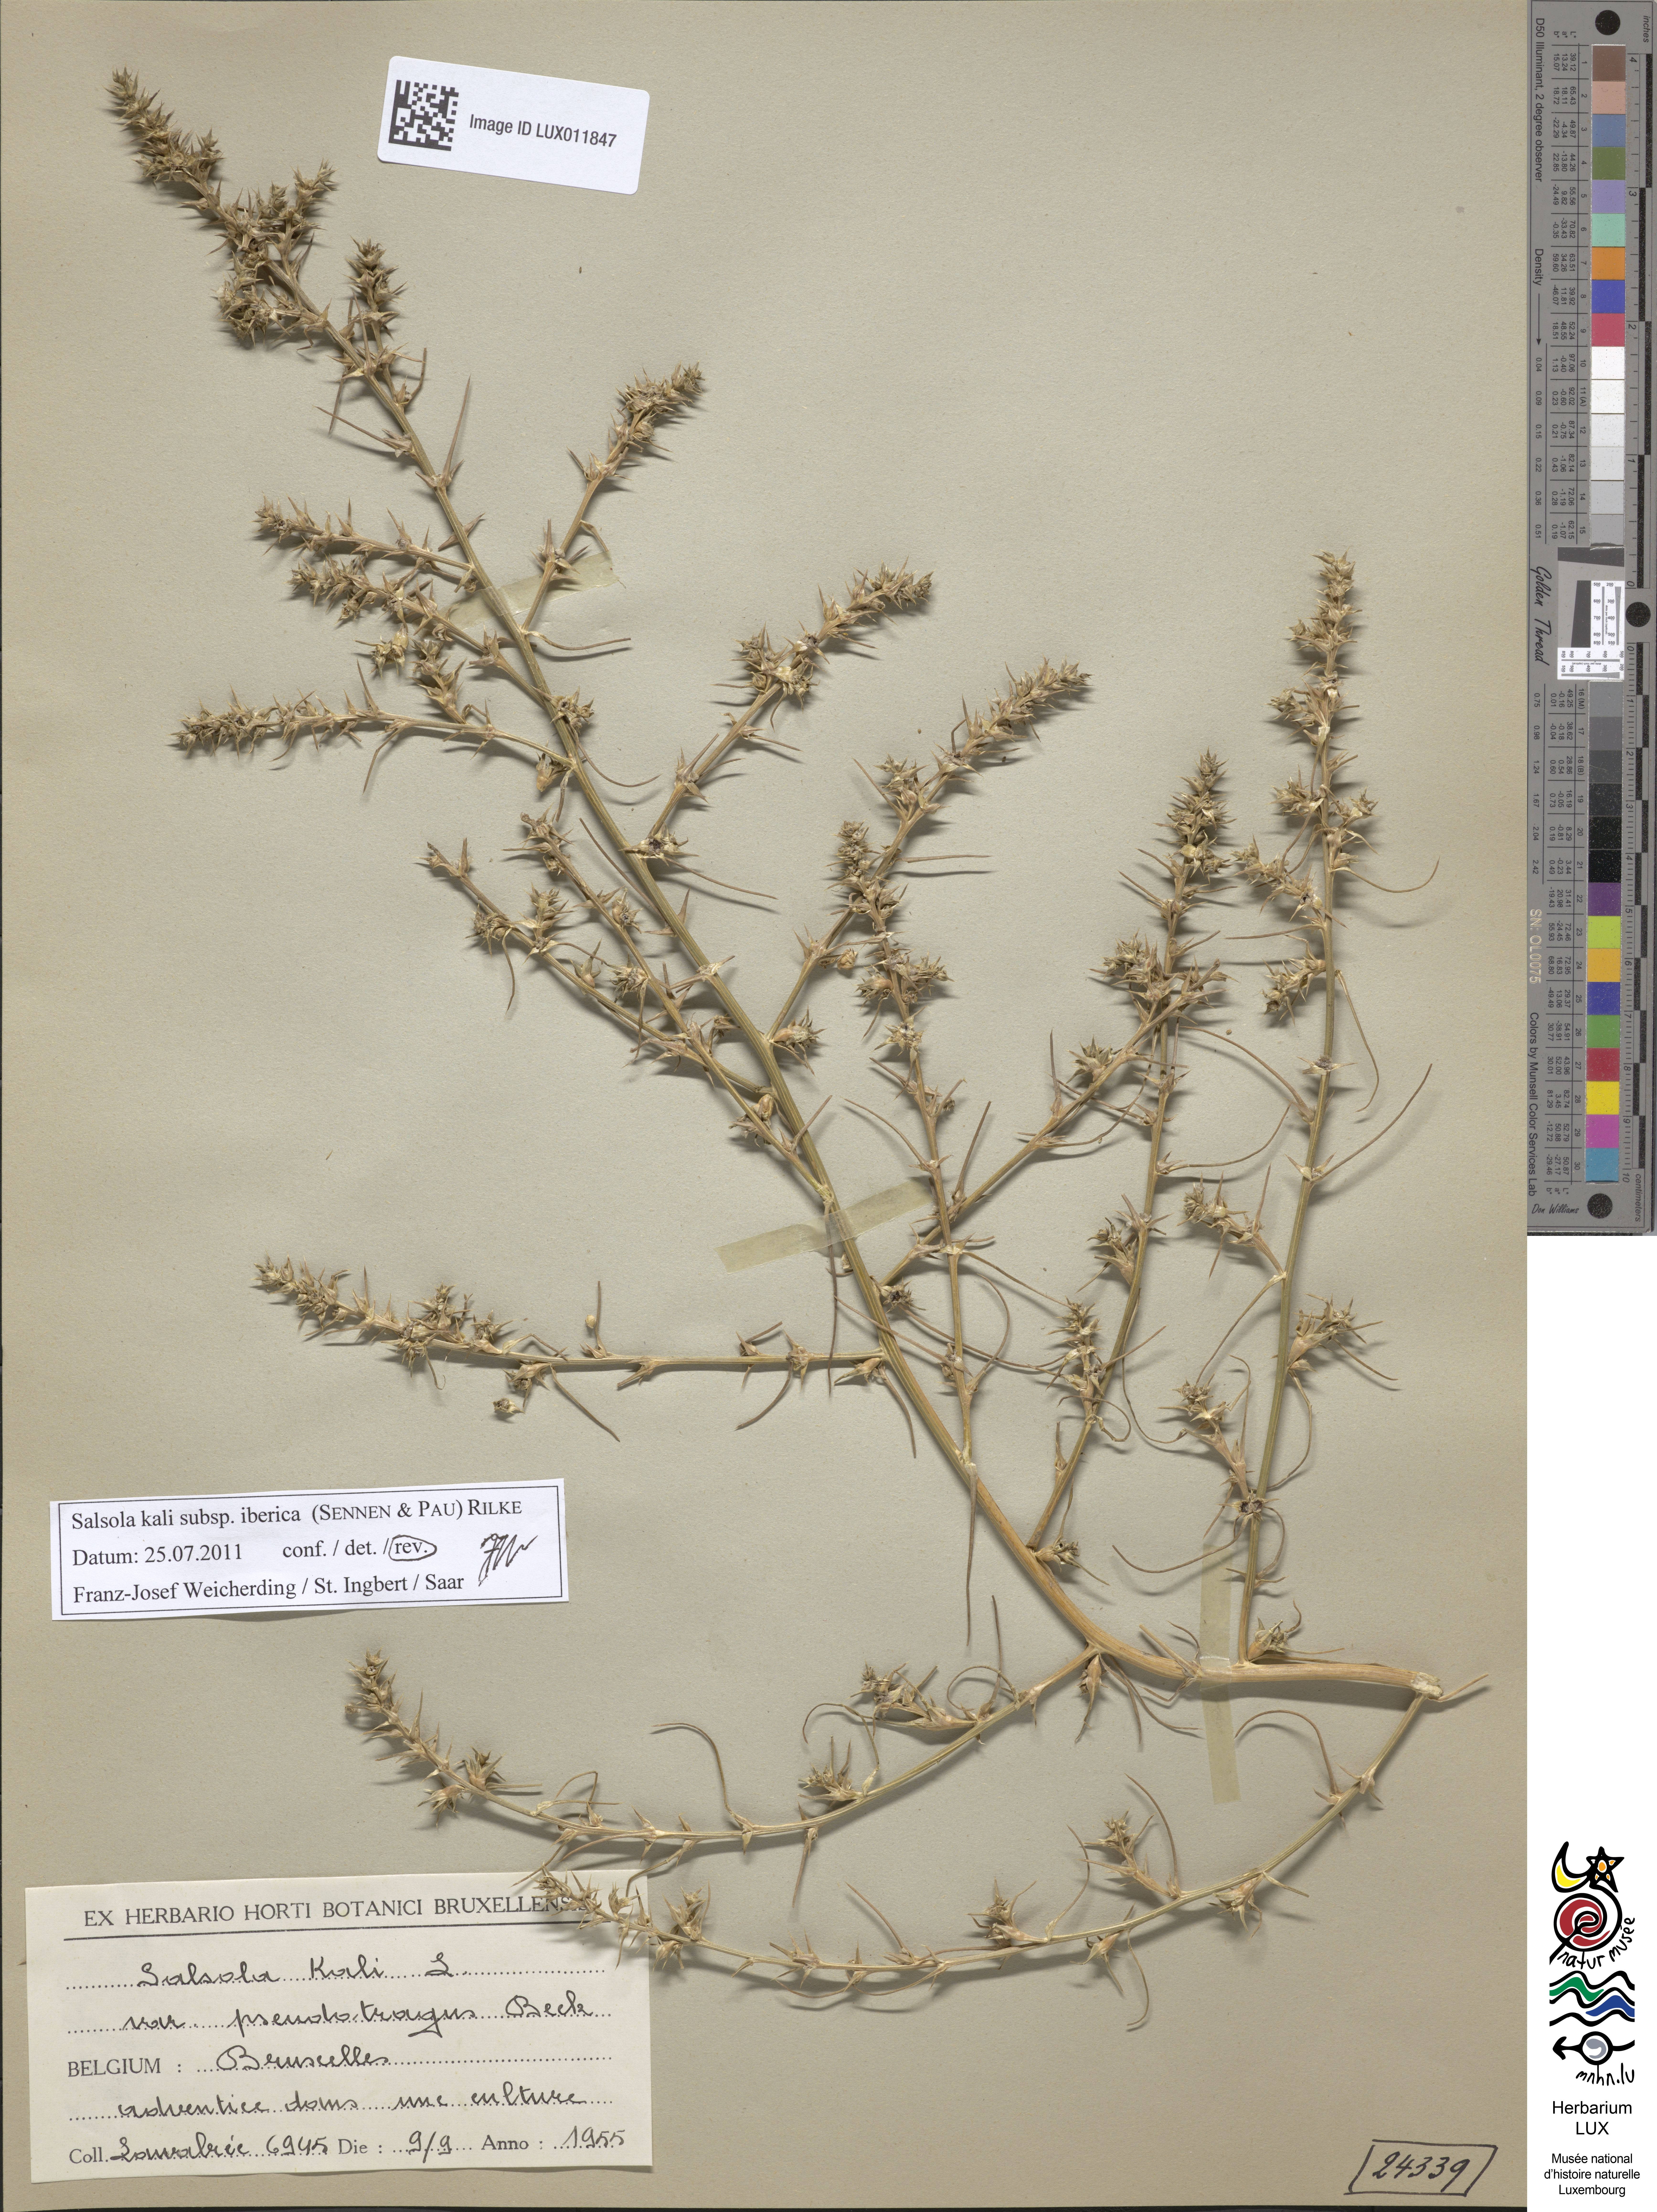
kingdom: Plantae
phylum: Tracheophyta
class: Magnoliopsida
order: Caryophyllales
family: Amaranthaceae
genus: Salsola
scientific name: Salsola tragus
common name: Prickly russian thistle
